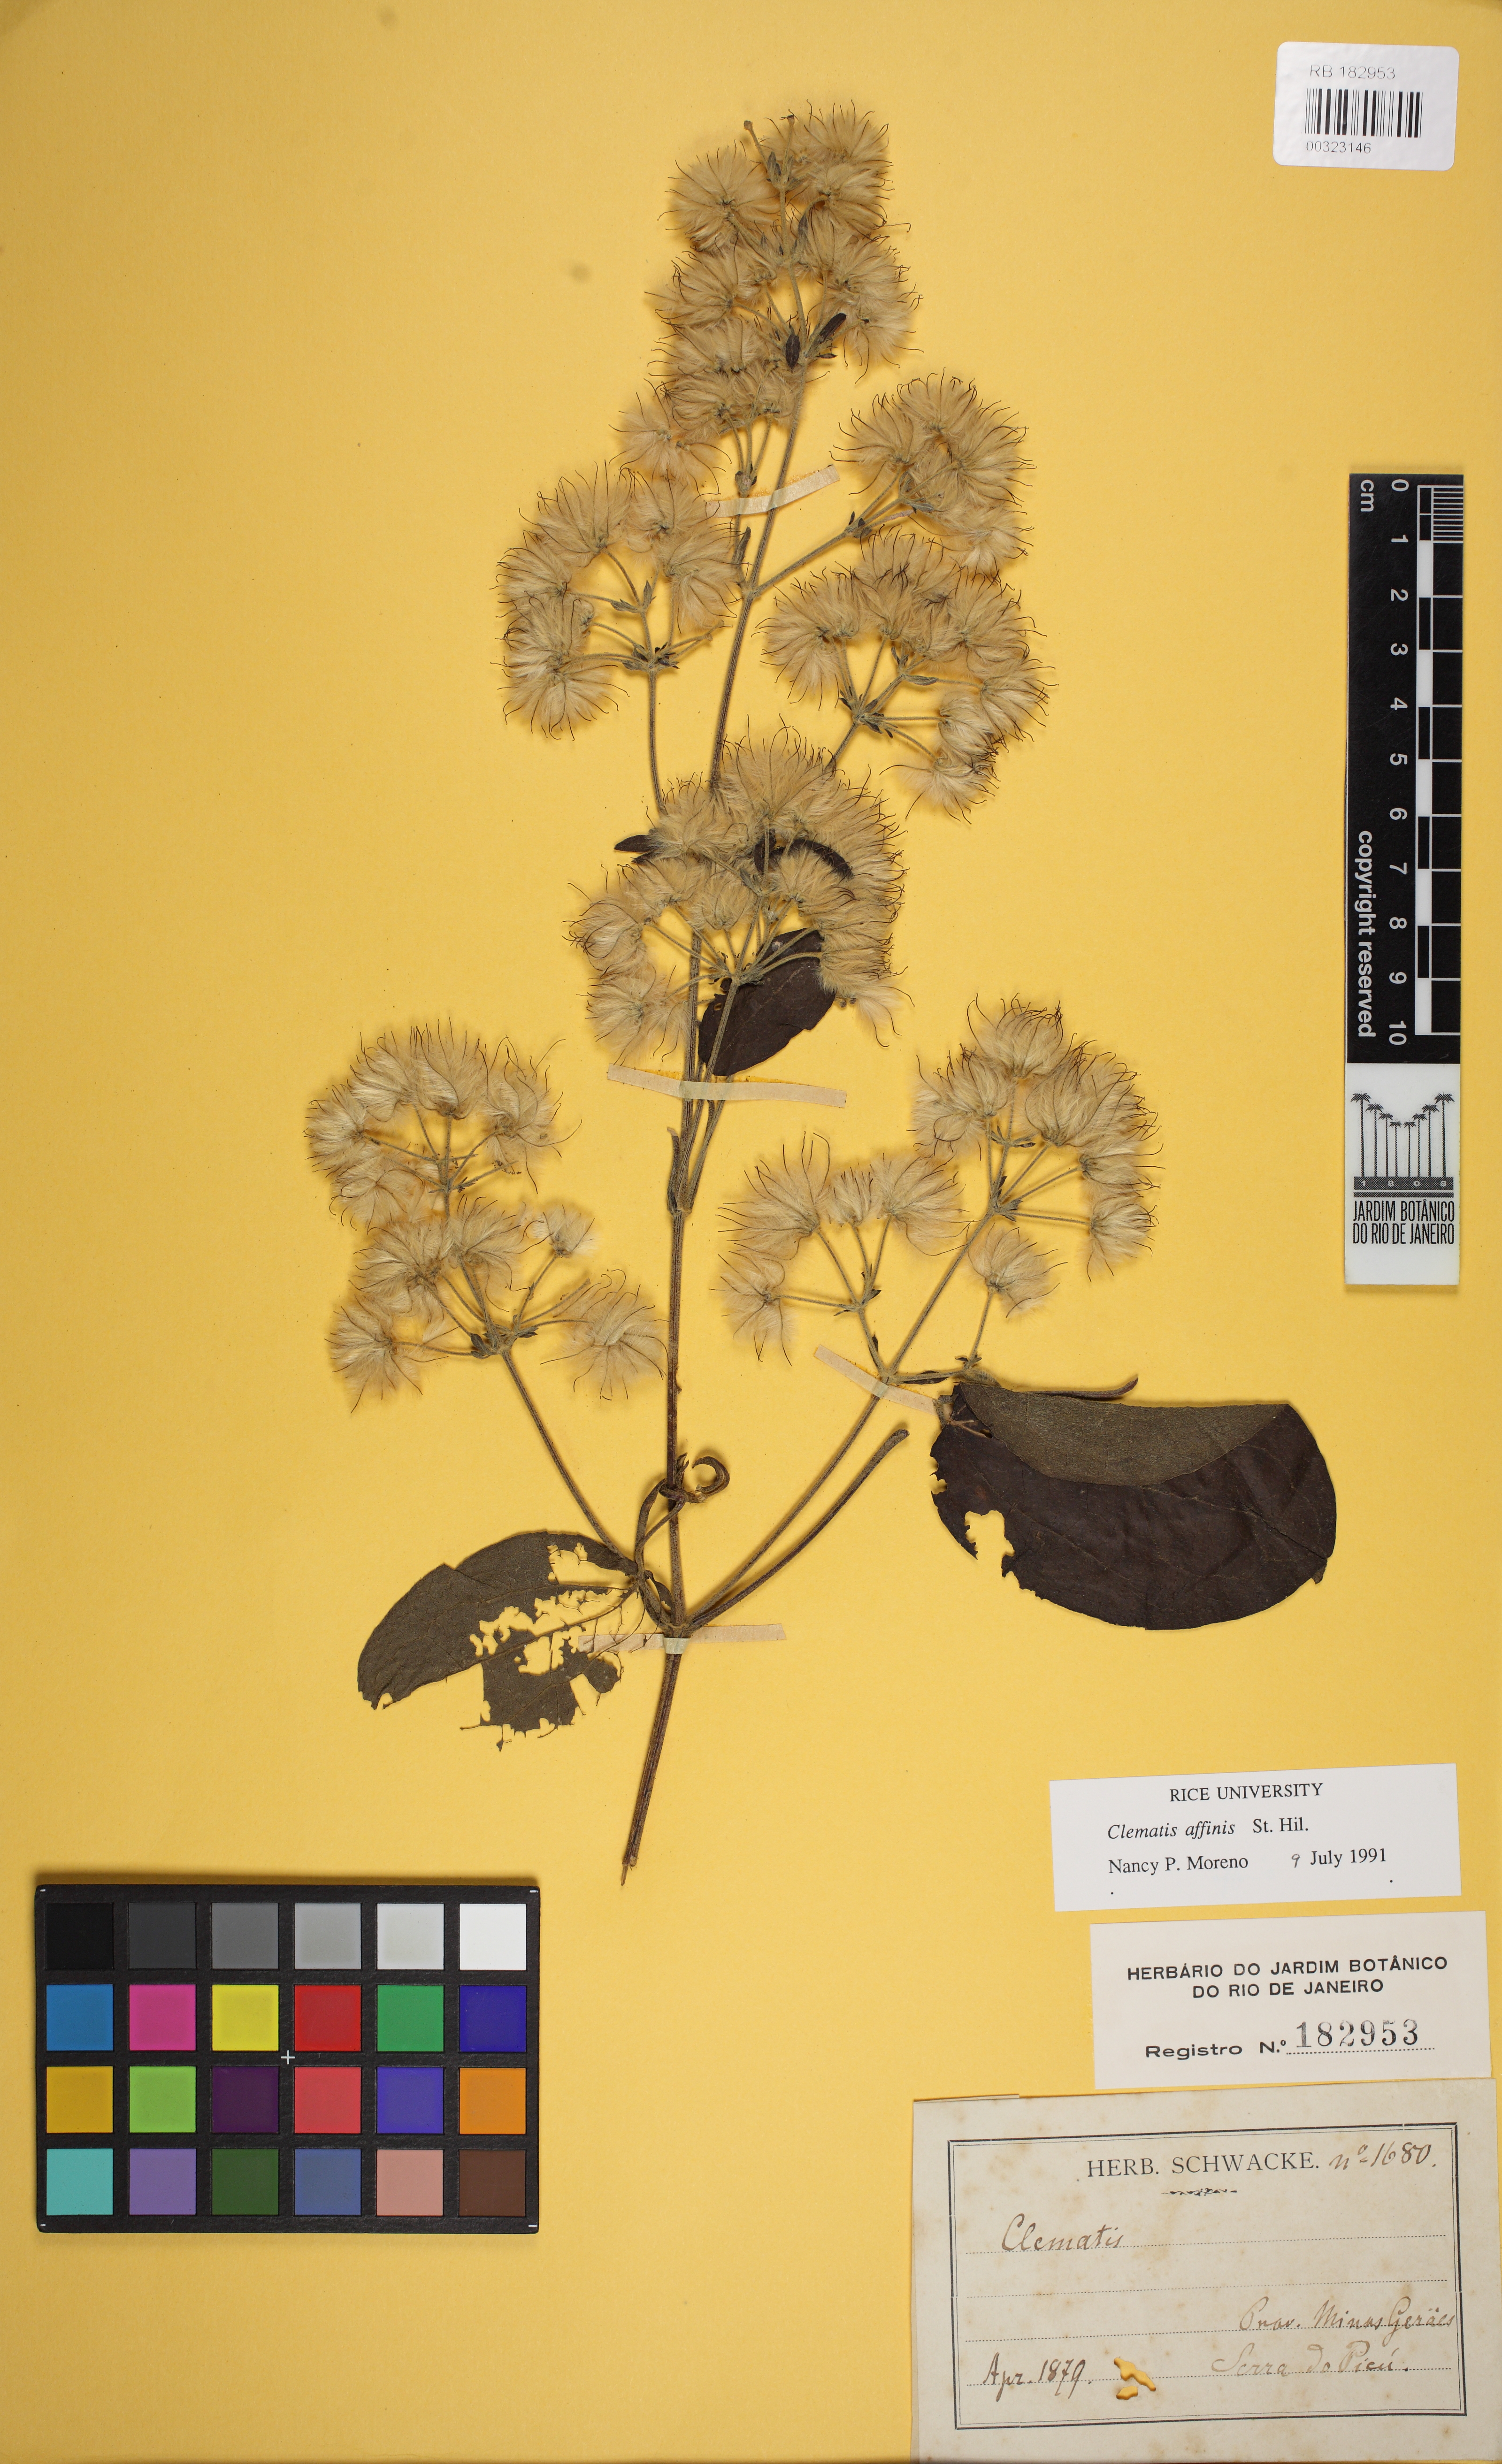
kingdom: Plantae
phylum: Tracheophyta
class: Magnoliopsida
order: Ranunculales
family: Ranunculaceae
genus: Clematis
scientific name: Clematis affinis
